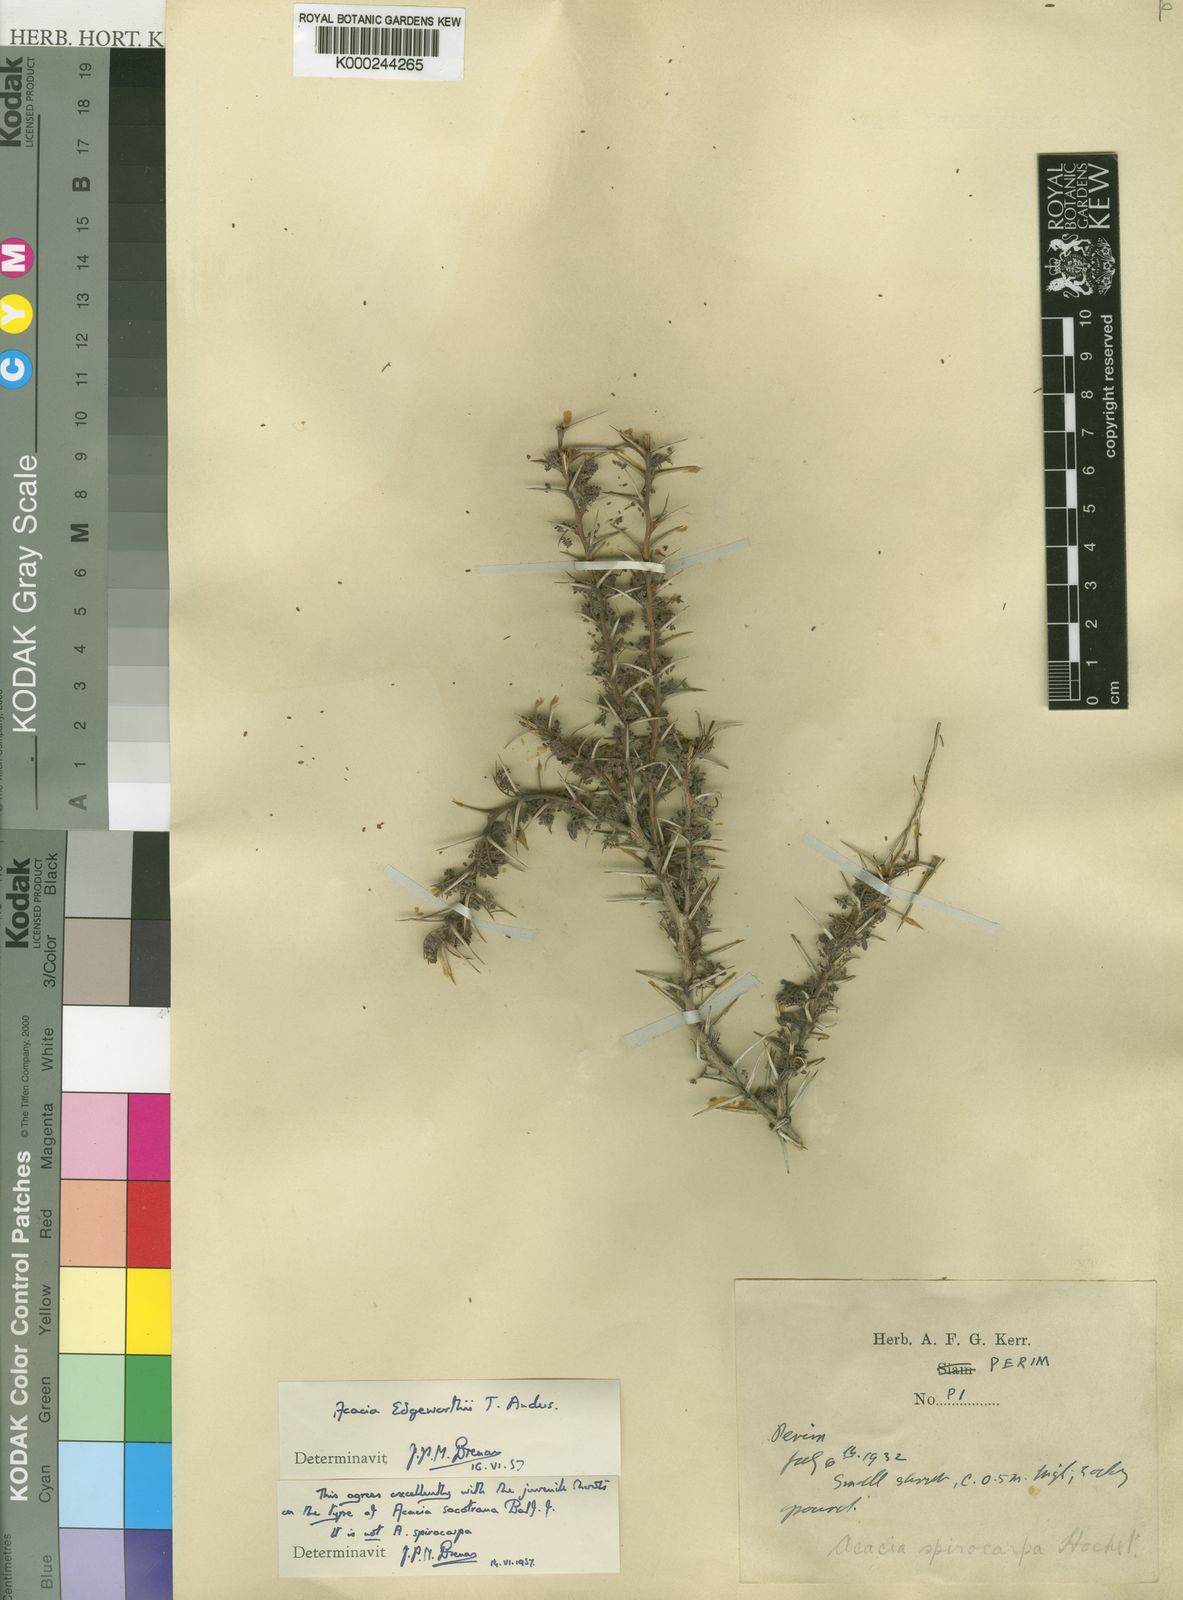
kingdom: Plantae
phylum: Tracheophyta
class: Magnoliopsida
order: Fabales
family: Fabaceae
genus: Vachellia
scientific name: Vachellia edgeworthii
